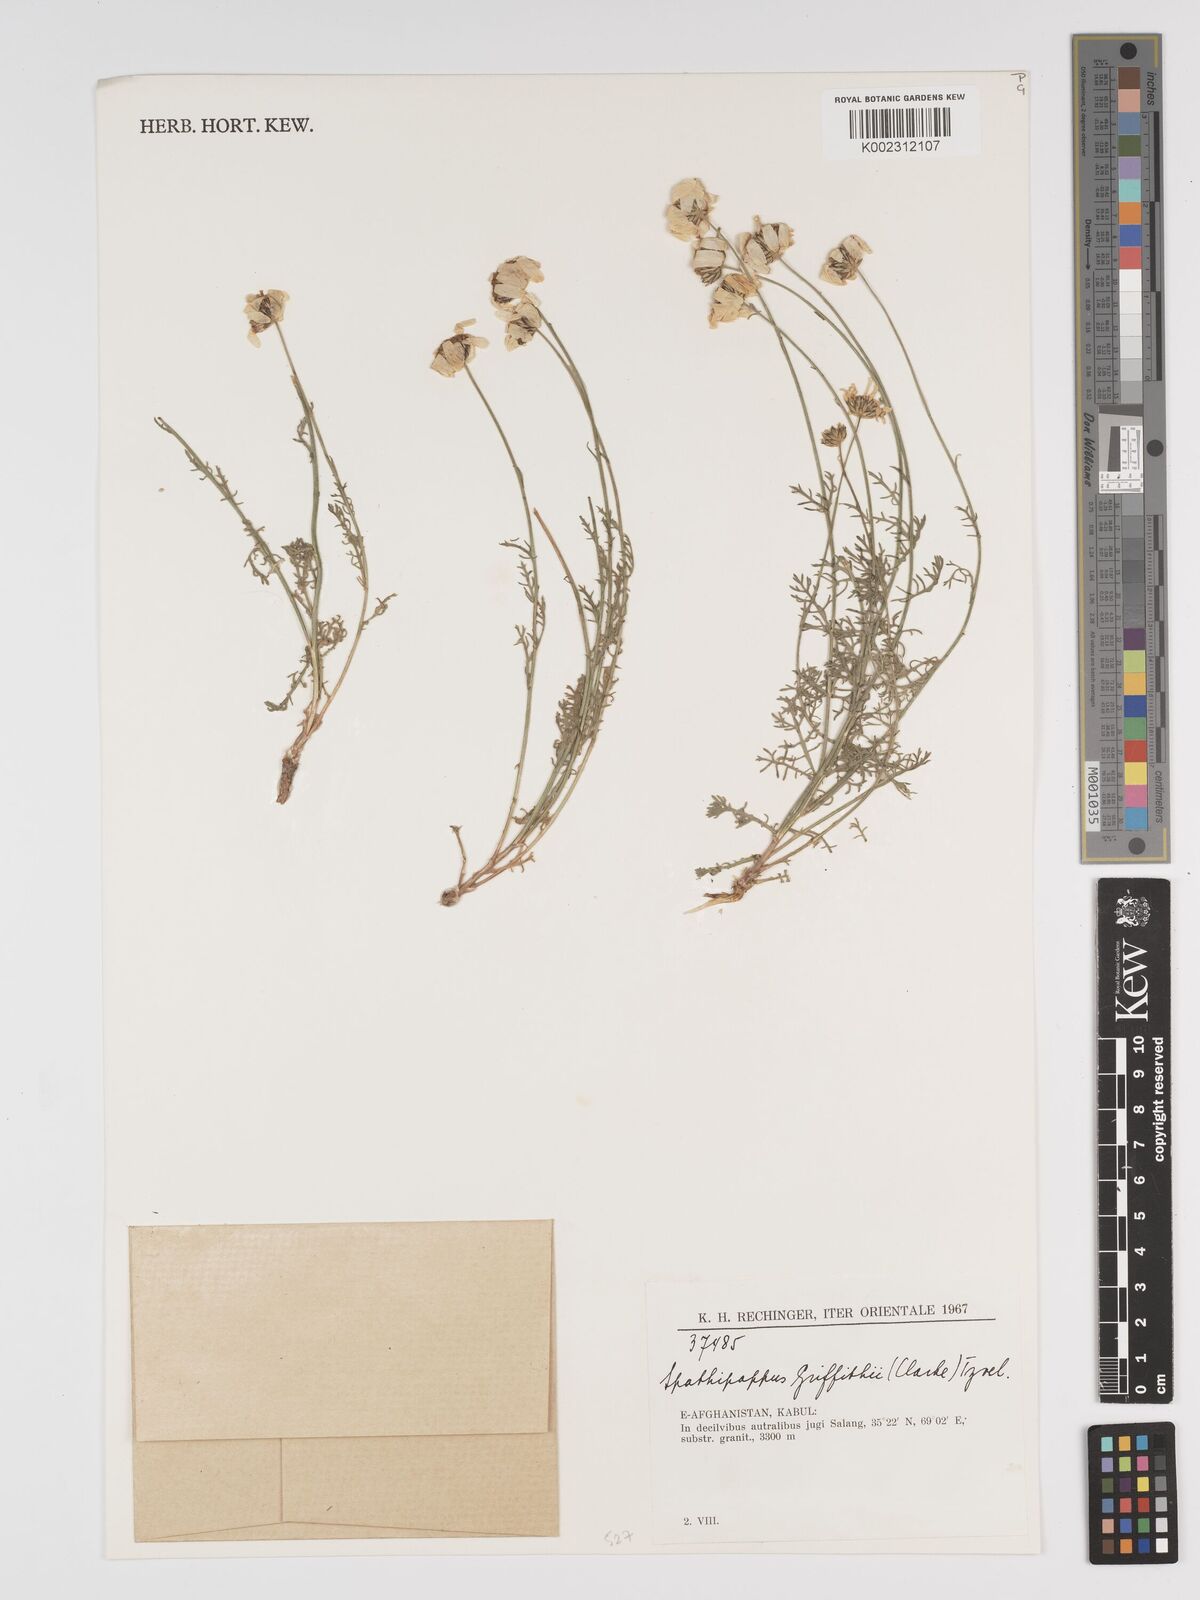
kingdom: Plantae
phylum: Tracheophyta
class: Magnoliopsida
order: Asterales
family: Asteraceae
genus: Tanacetum
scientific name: Tanacetum griffithii
